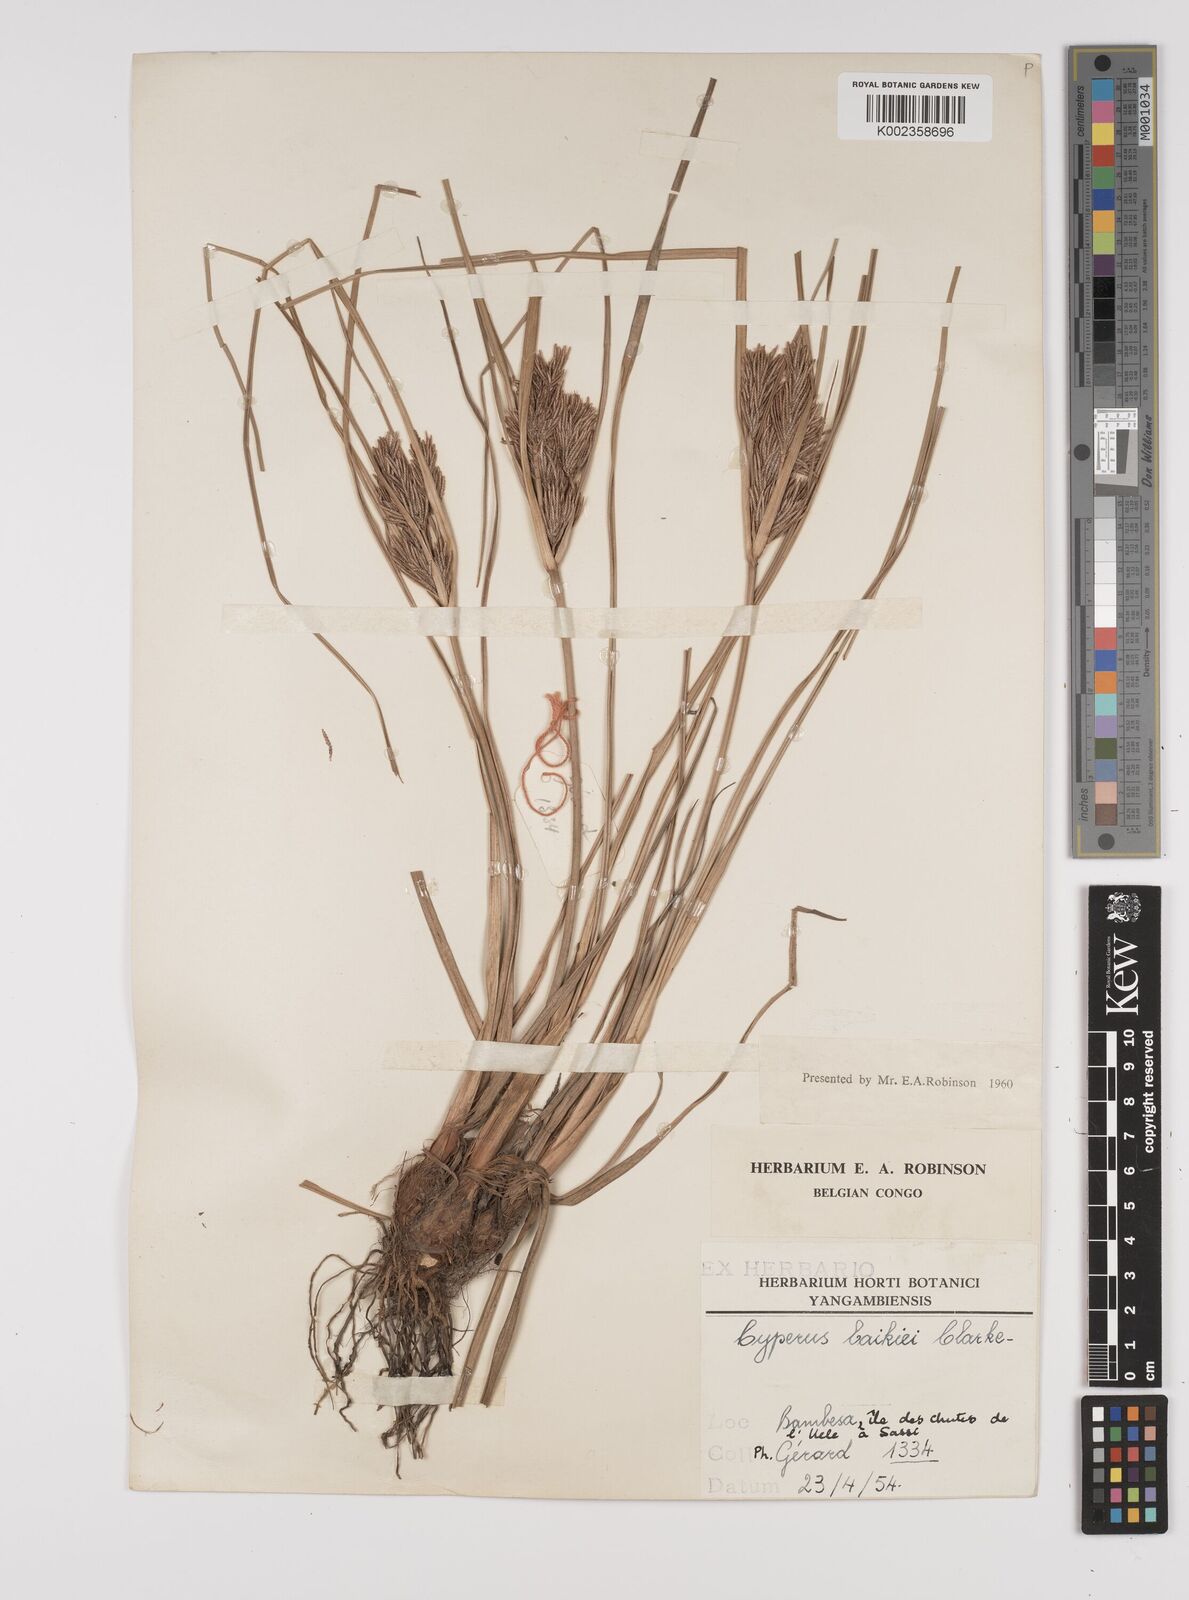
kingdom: Plantae
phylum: Tracheophyta
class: Liliopsida
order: Poales
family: Cyperaceae
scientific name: Cyperaceae
